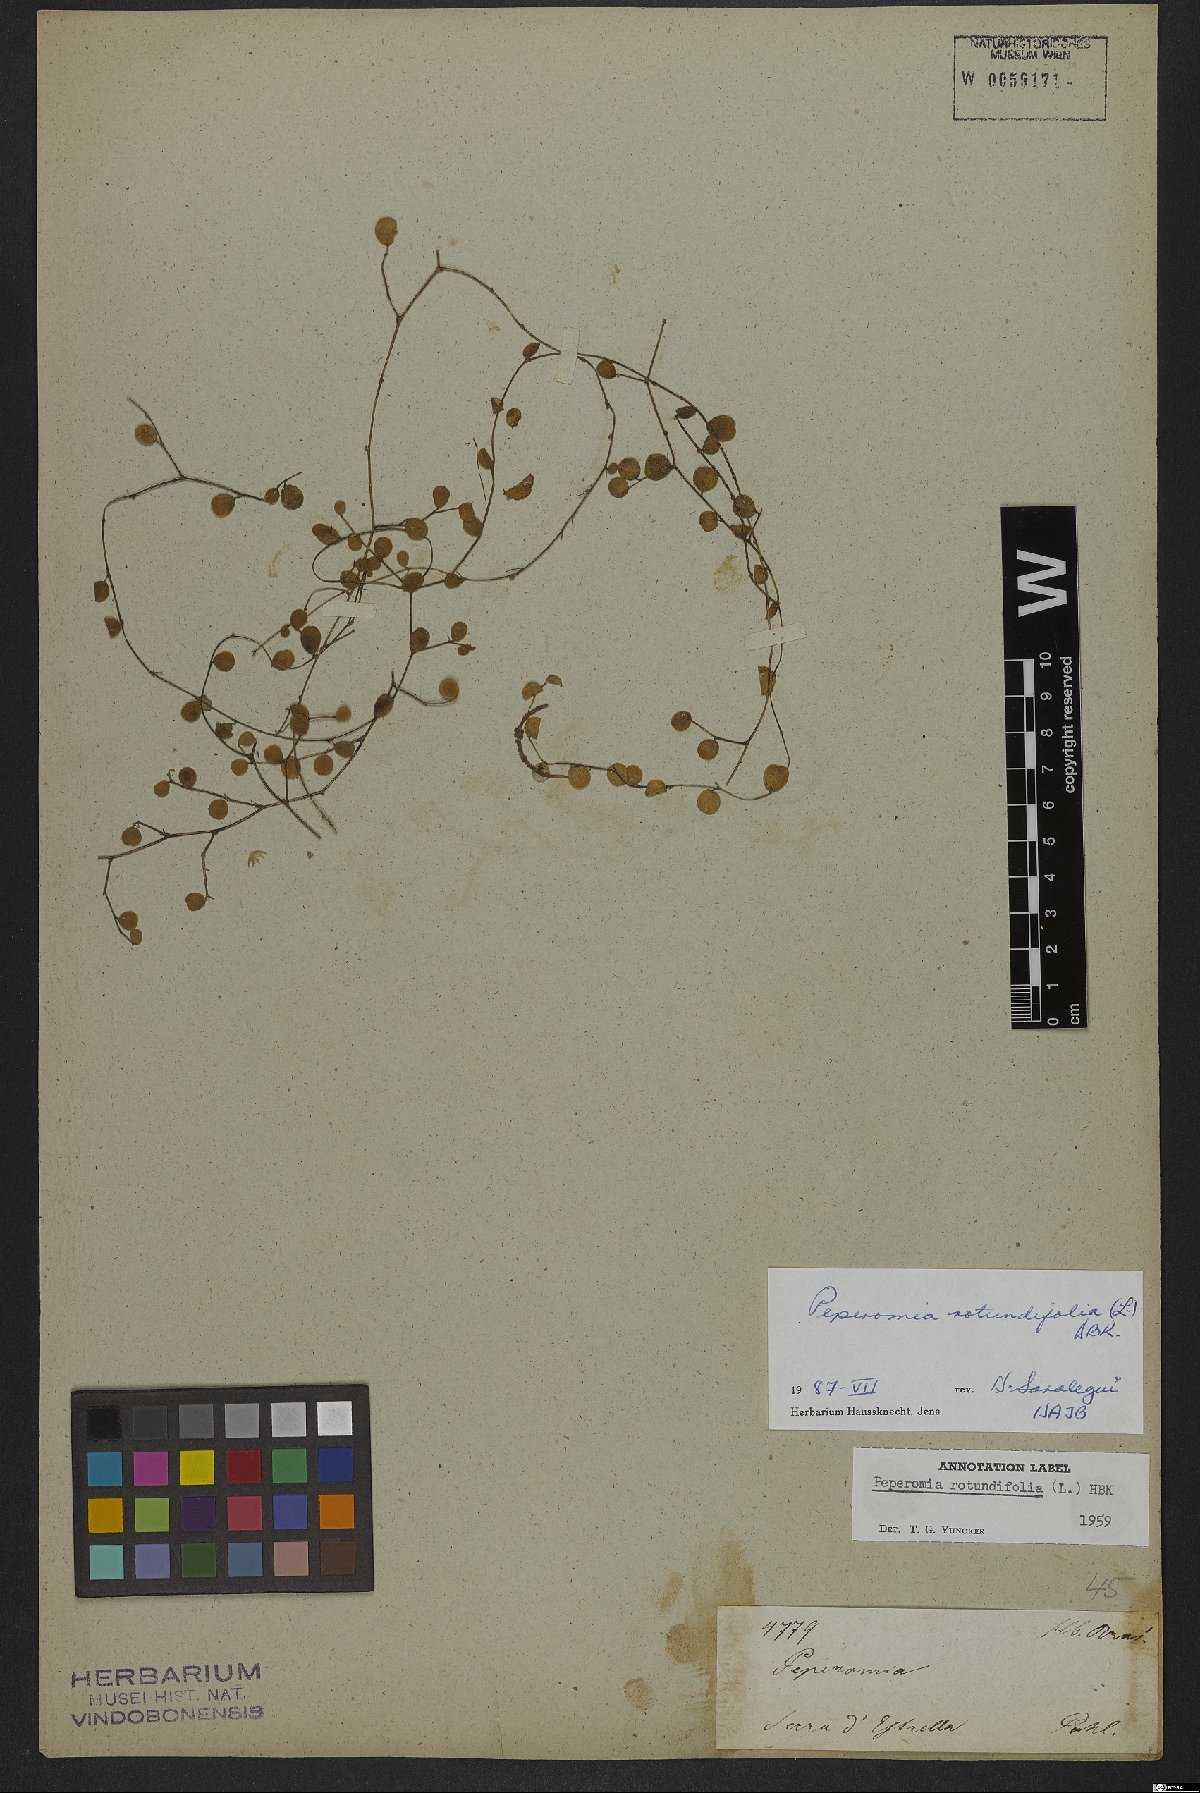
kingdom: Plantae
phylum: Tracheophyta
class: Magnoliopsida
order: Piperales
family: Piperaceae
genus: Peperomia
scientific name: Peperomia rotundifolia
